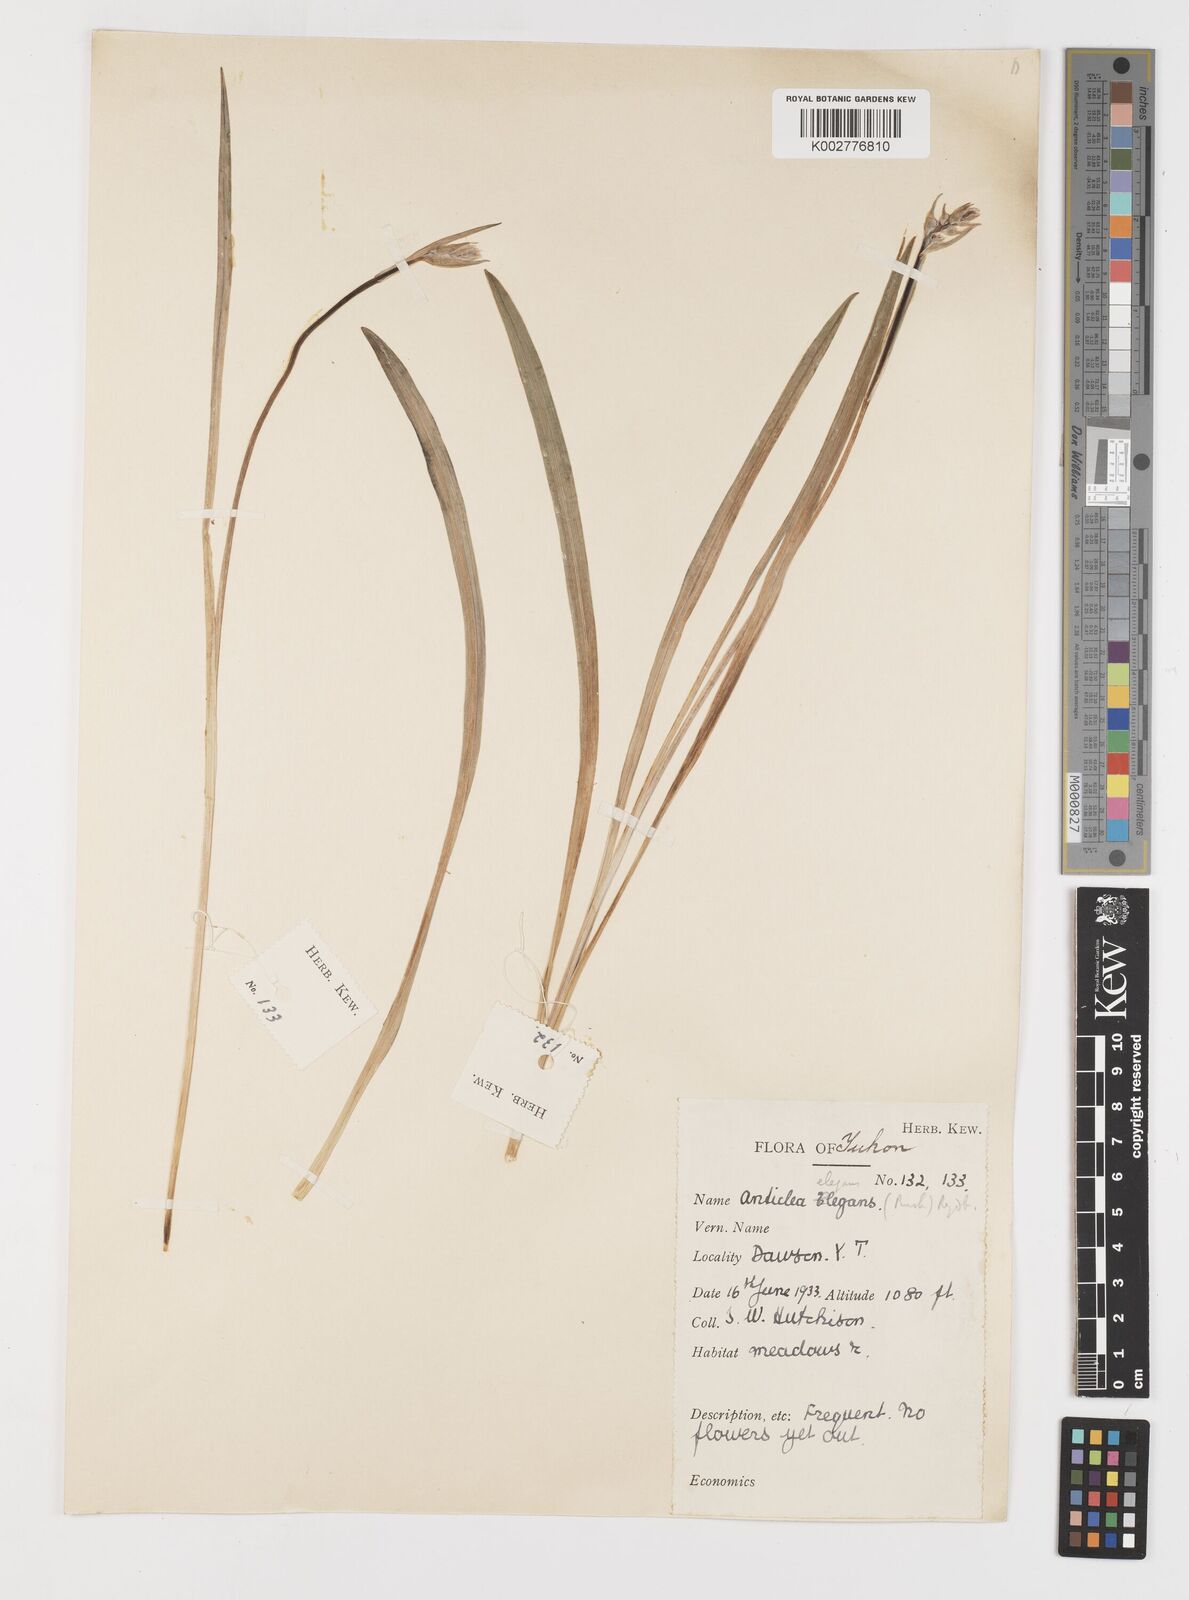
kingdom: Plantae
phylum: Tracheophyta
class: Liliopsida
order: Liliales
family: Melanthiaceae
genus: Anticlea
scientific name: Anticlea elegans
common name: Mountain death camas
